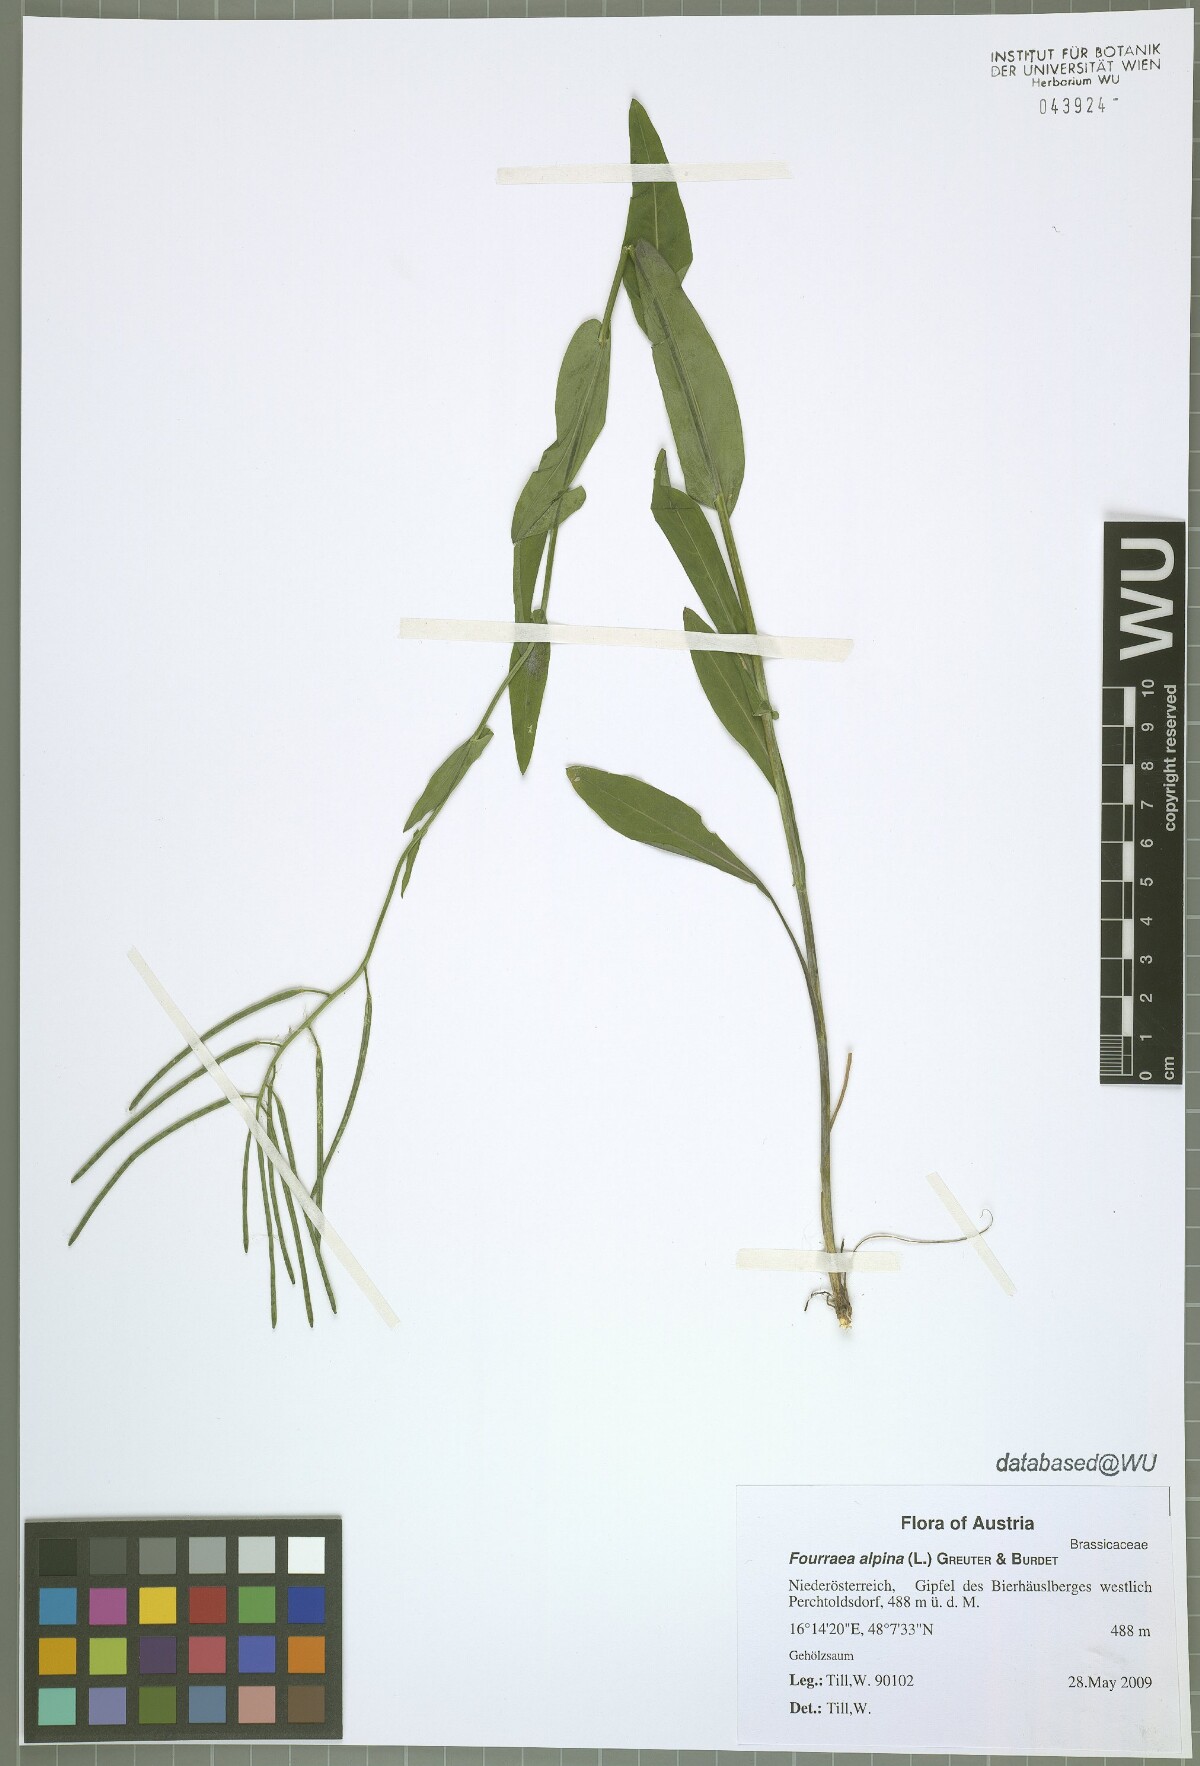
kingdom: Plantae
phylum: Tracheophyta
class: Magnoliopsida
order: Brassicales
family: Brassicaceae
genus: Fourraea
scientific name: Fourraea alpina
